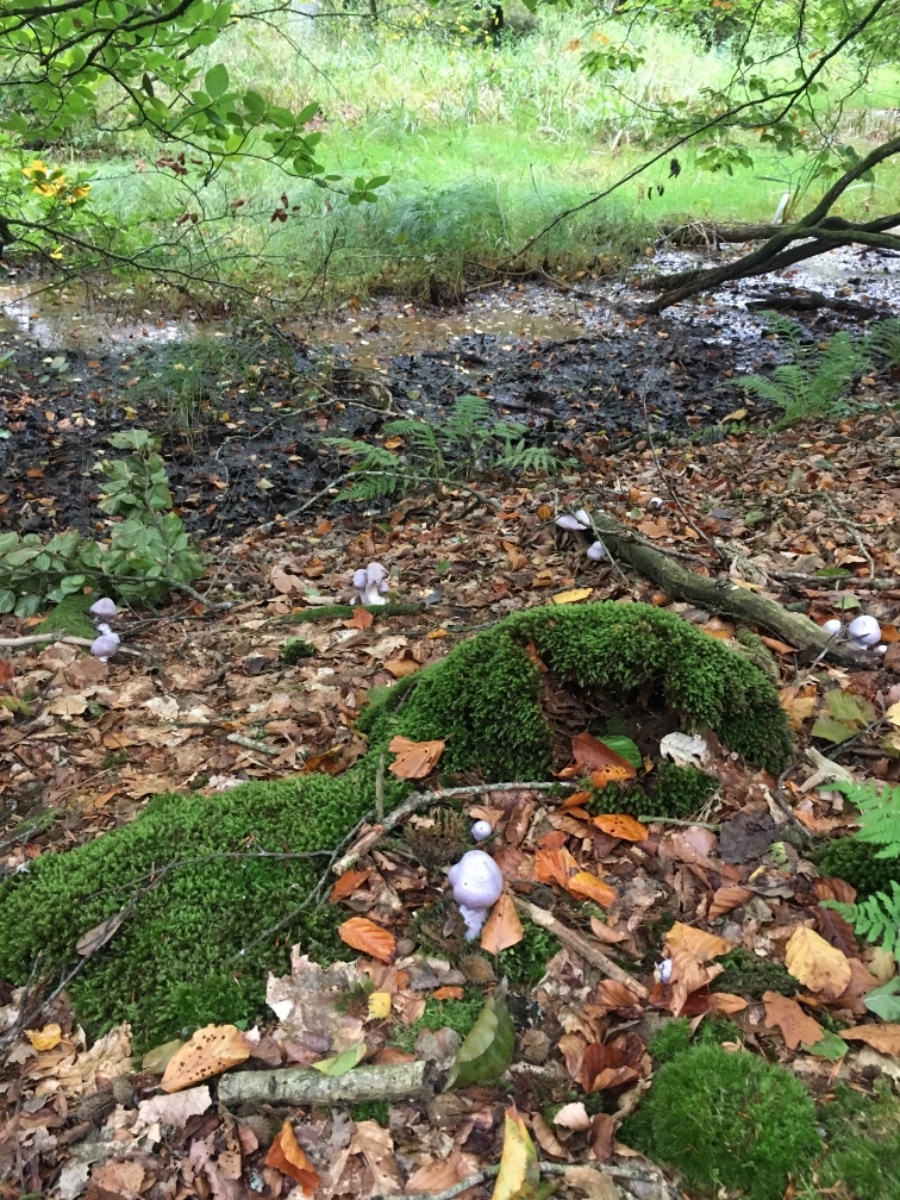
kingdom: Fungi
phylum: Basidiomycota
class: Agaricomycetes
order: Agaricales
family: Cortinariaceae
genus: Cortinarius
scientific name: Cortinarius alboviolaceus
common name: lysviolet slørhat
